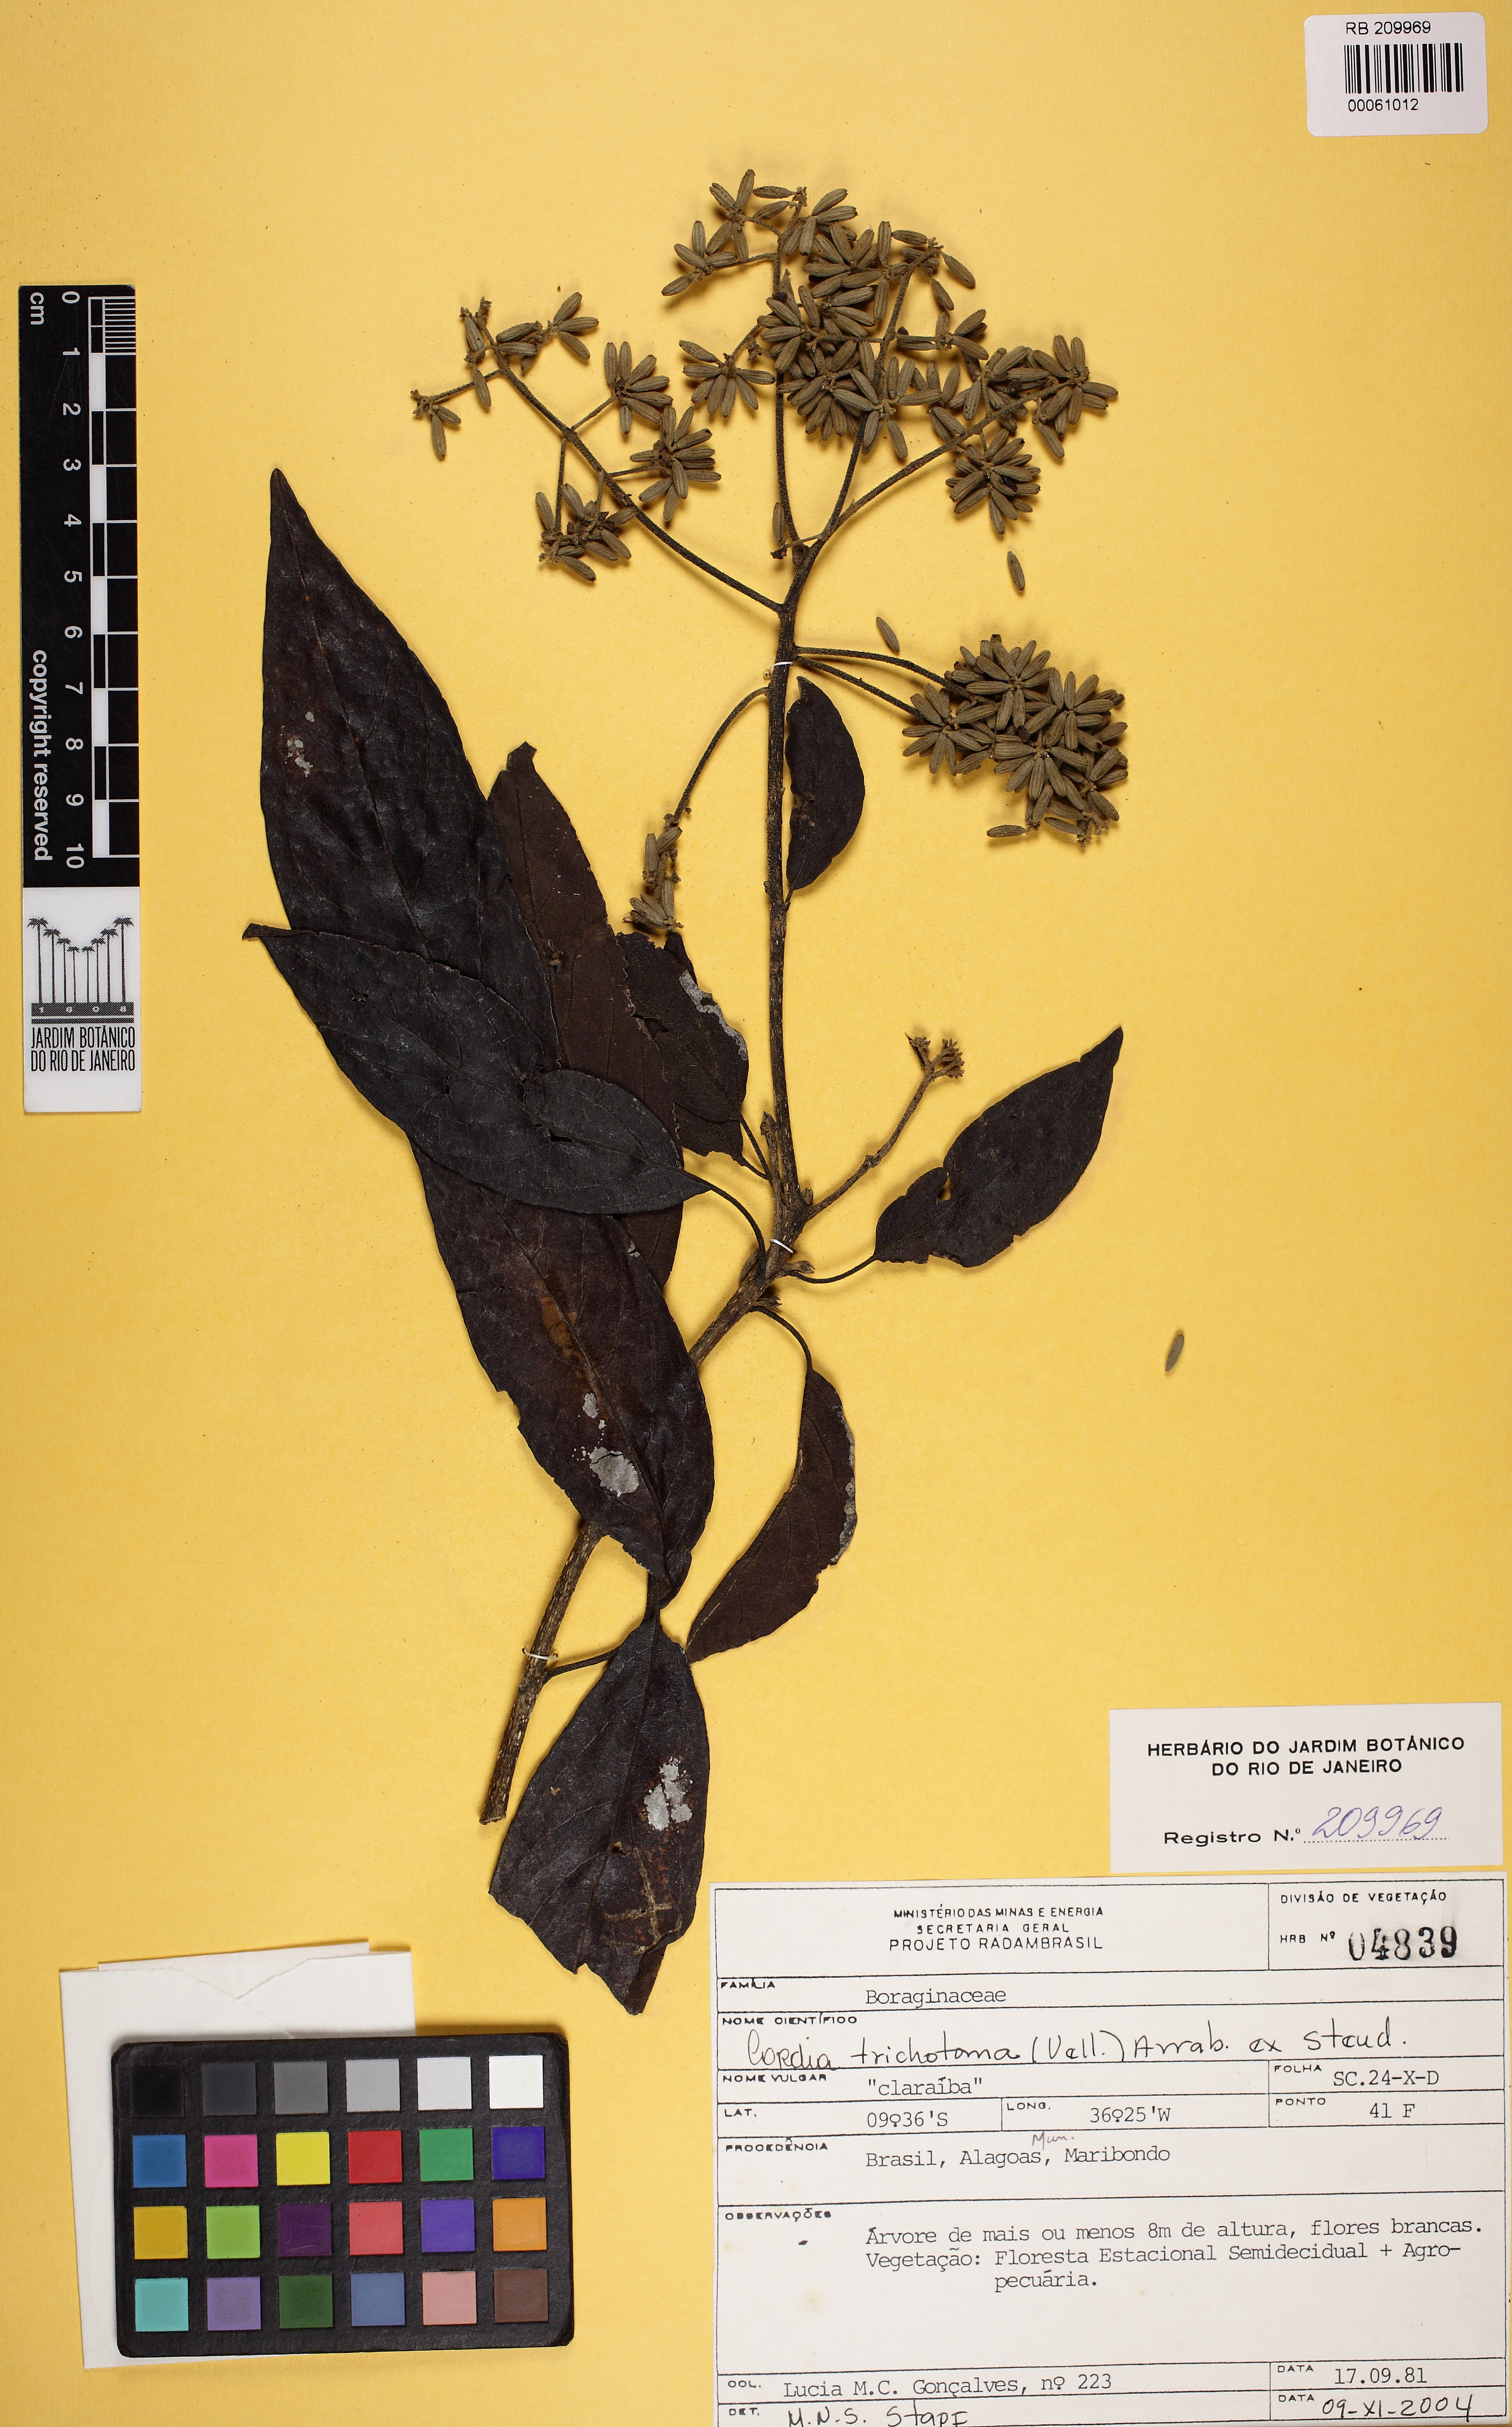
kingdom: Plantae
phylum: Tracheophyta
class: Magnoliopsida
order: Boraginales
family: Cordiaceae
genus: Cordia
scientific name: Cordia trichotoma
